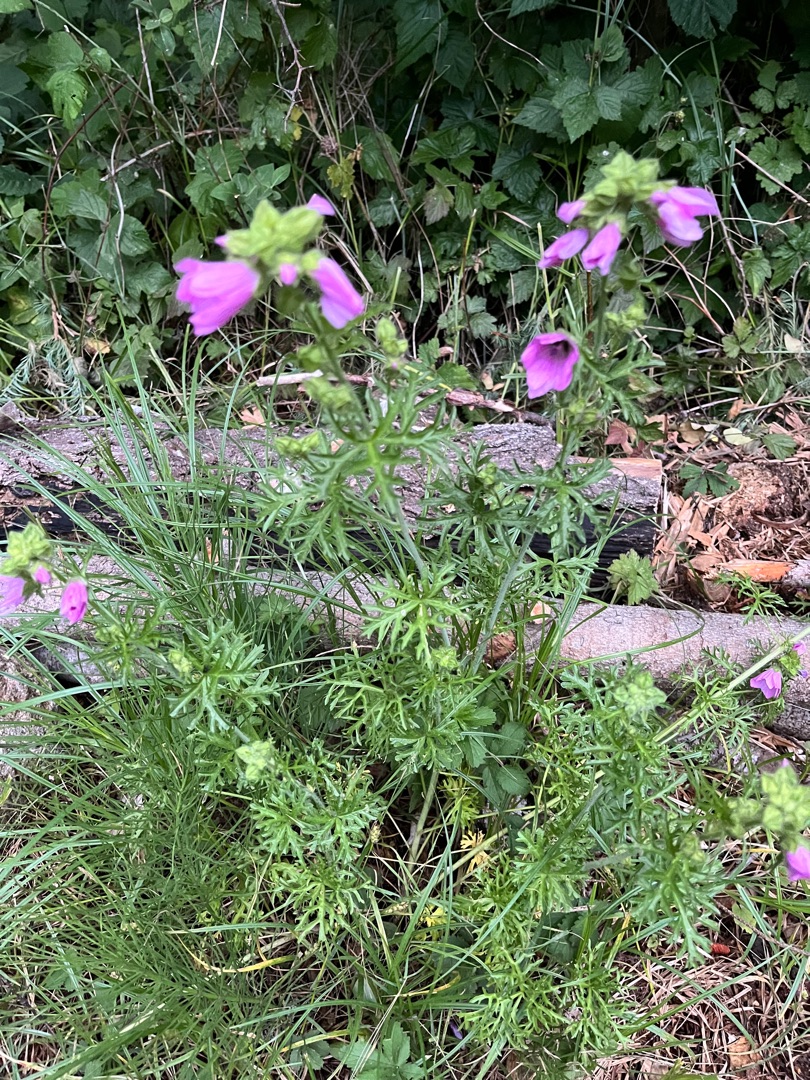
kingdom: Plantae
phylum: Tracheophyta
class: Magnoliopsida
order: Malvales
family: Malvaceae
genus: Malva
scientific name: Malva moschata
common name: Moskus-katost
